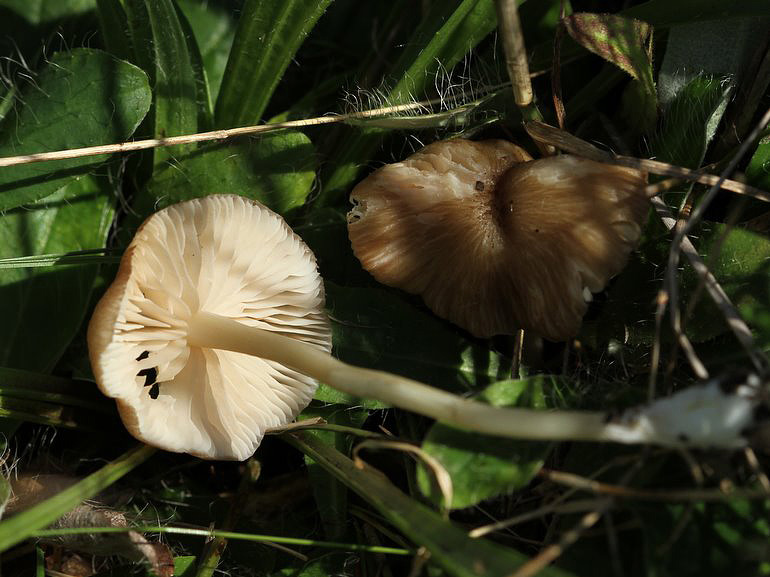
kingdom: Fungi
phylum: Basidiomycota
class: Agaricomycetes
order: Agaricales
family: Entolomataceae
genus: Entoloma
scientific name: Entoloma
